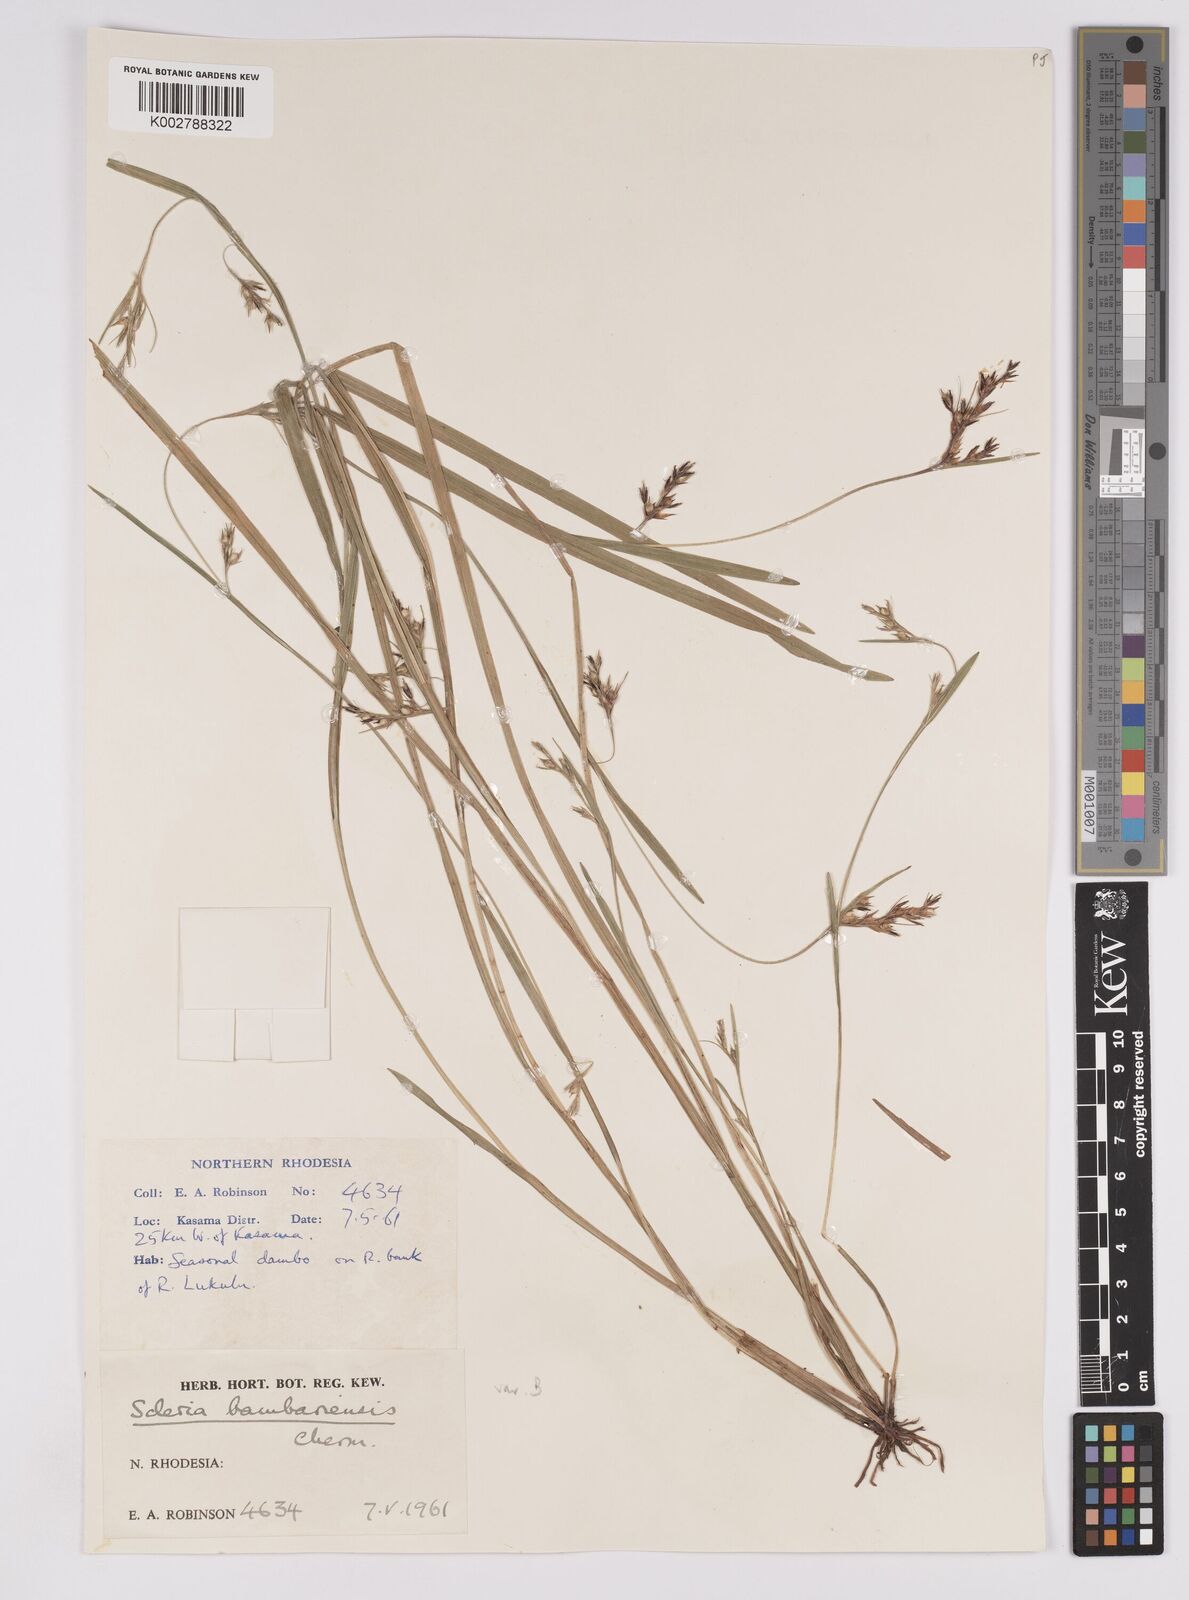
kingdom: Plantae
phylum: Tracheophyta
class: Liliopsida
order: Poales
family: Cyperaceae
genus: Scleria
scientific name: Scleria bambariensis
